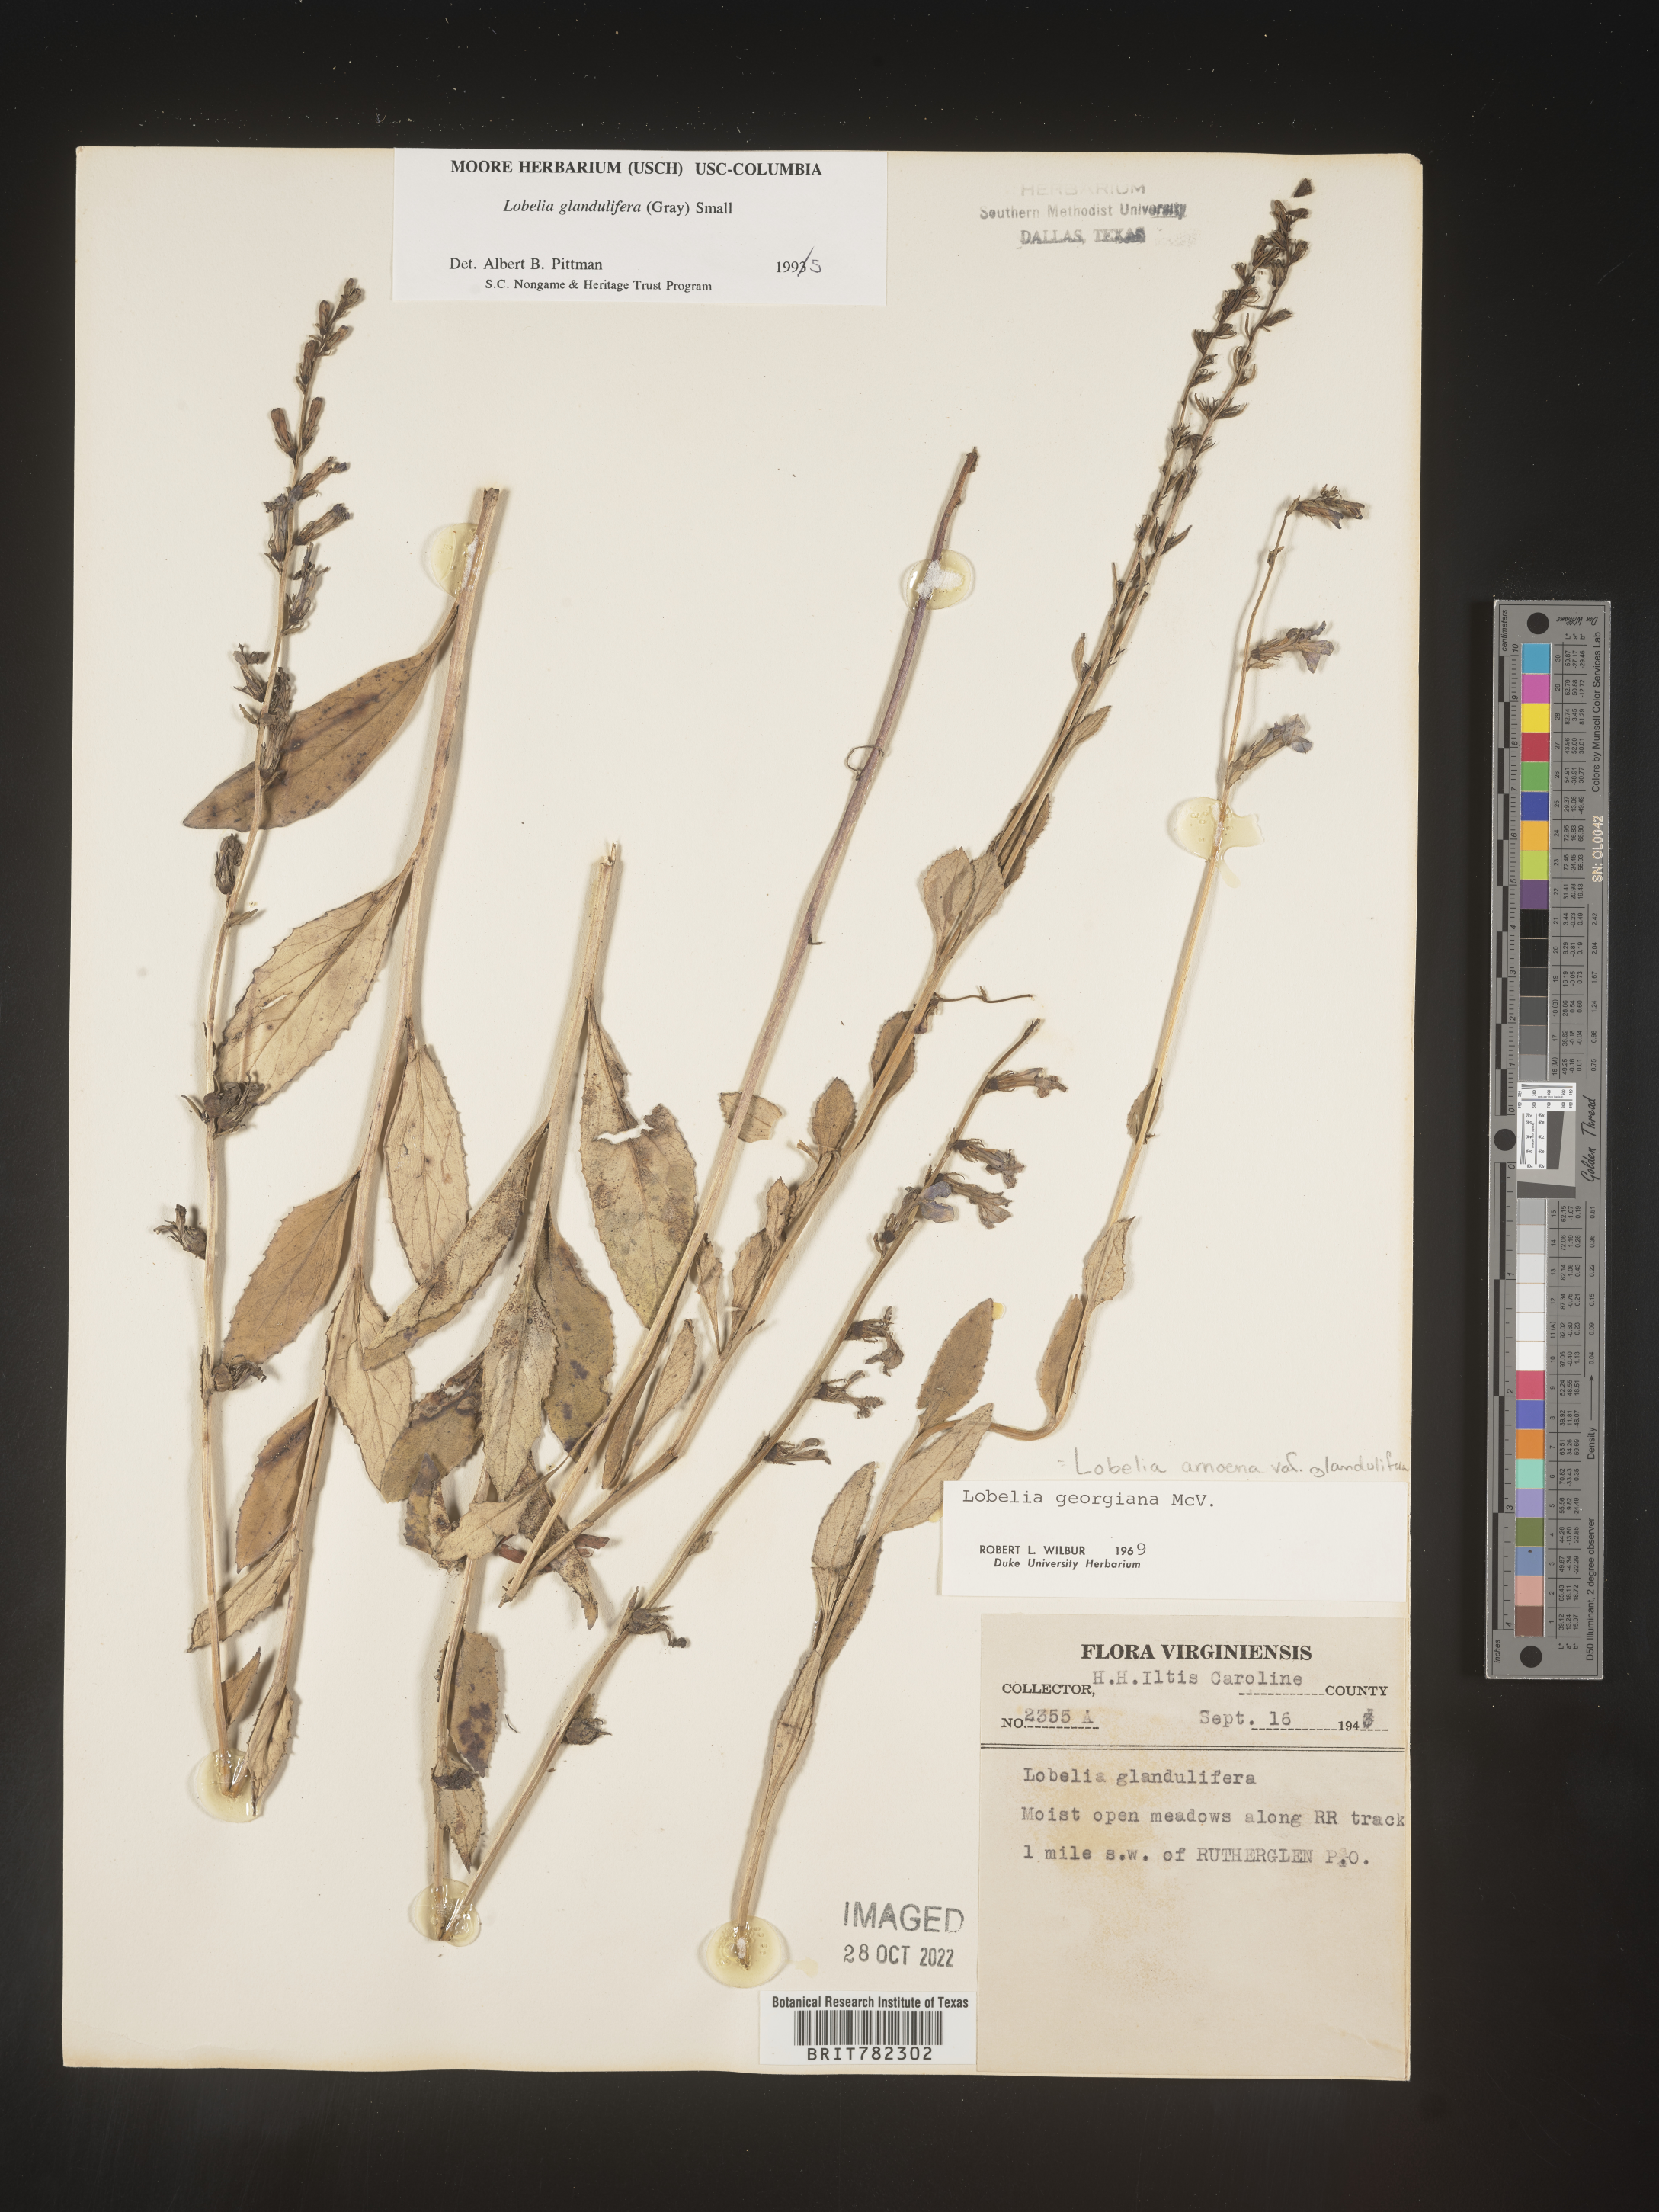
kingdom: Plantae
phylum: Tracheophyta
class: Magnoliopsida
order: Asterales
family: Campanulaceae
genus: Lobelia
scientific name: Lobelia amoena
